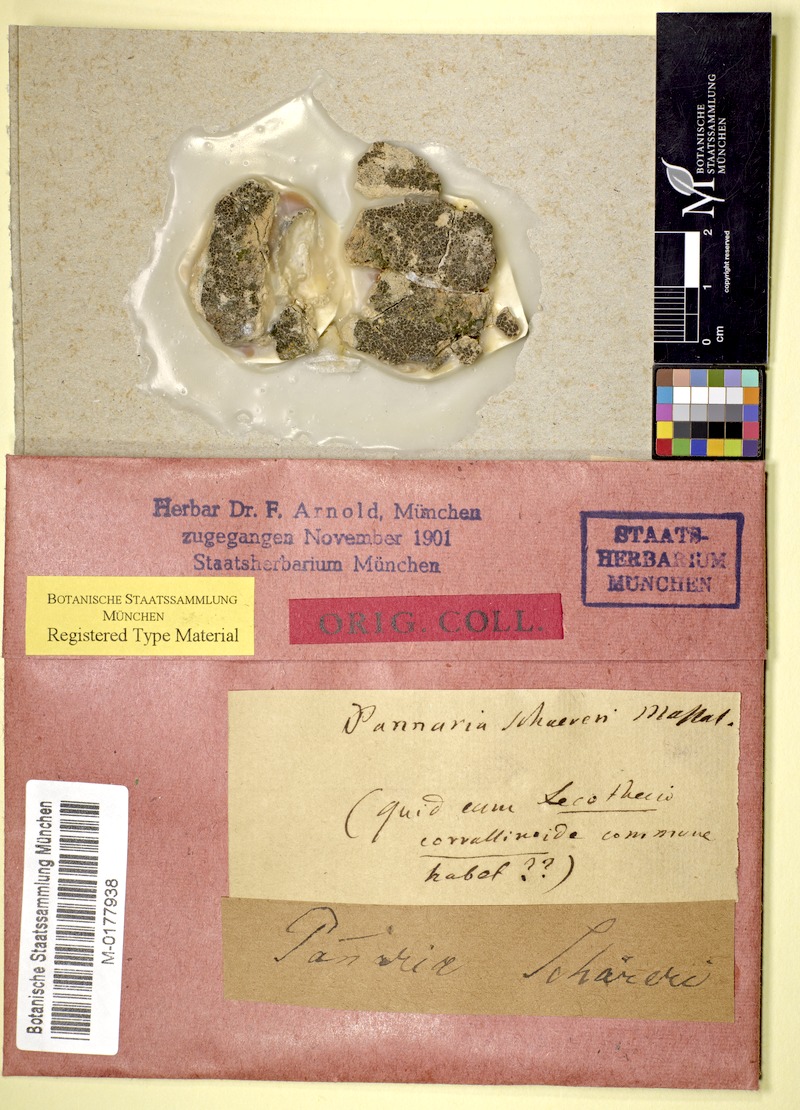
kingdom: Fungi
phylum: Ascomycota
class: Lichinomycetes
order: Lichinales
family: Lichinaceae
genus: Psorotichia
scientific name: Psorotichia schaereri
